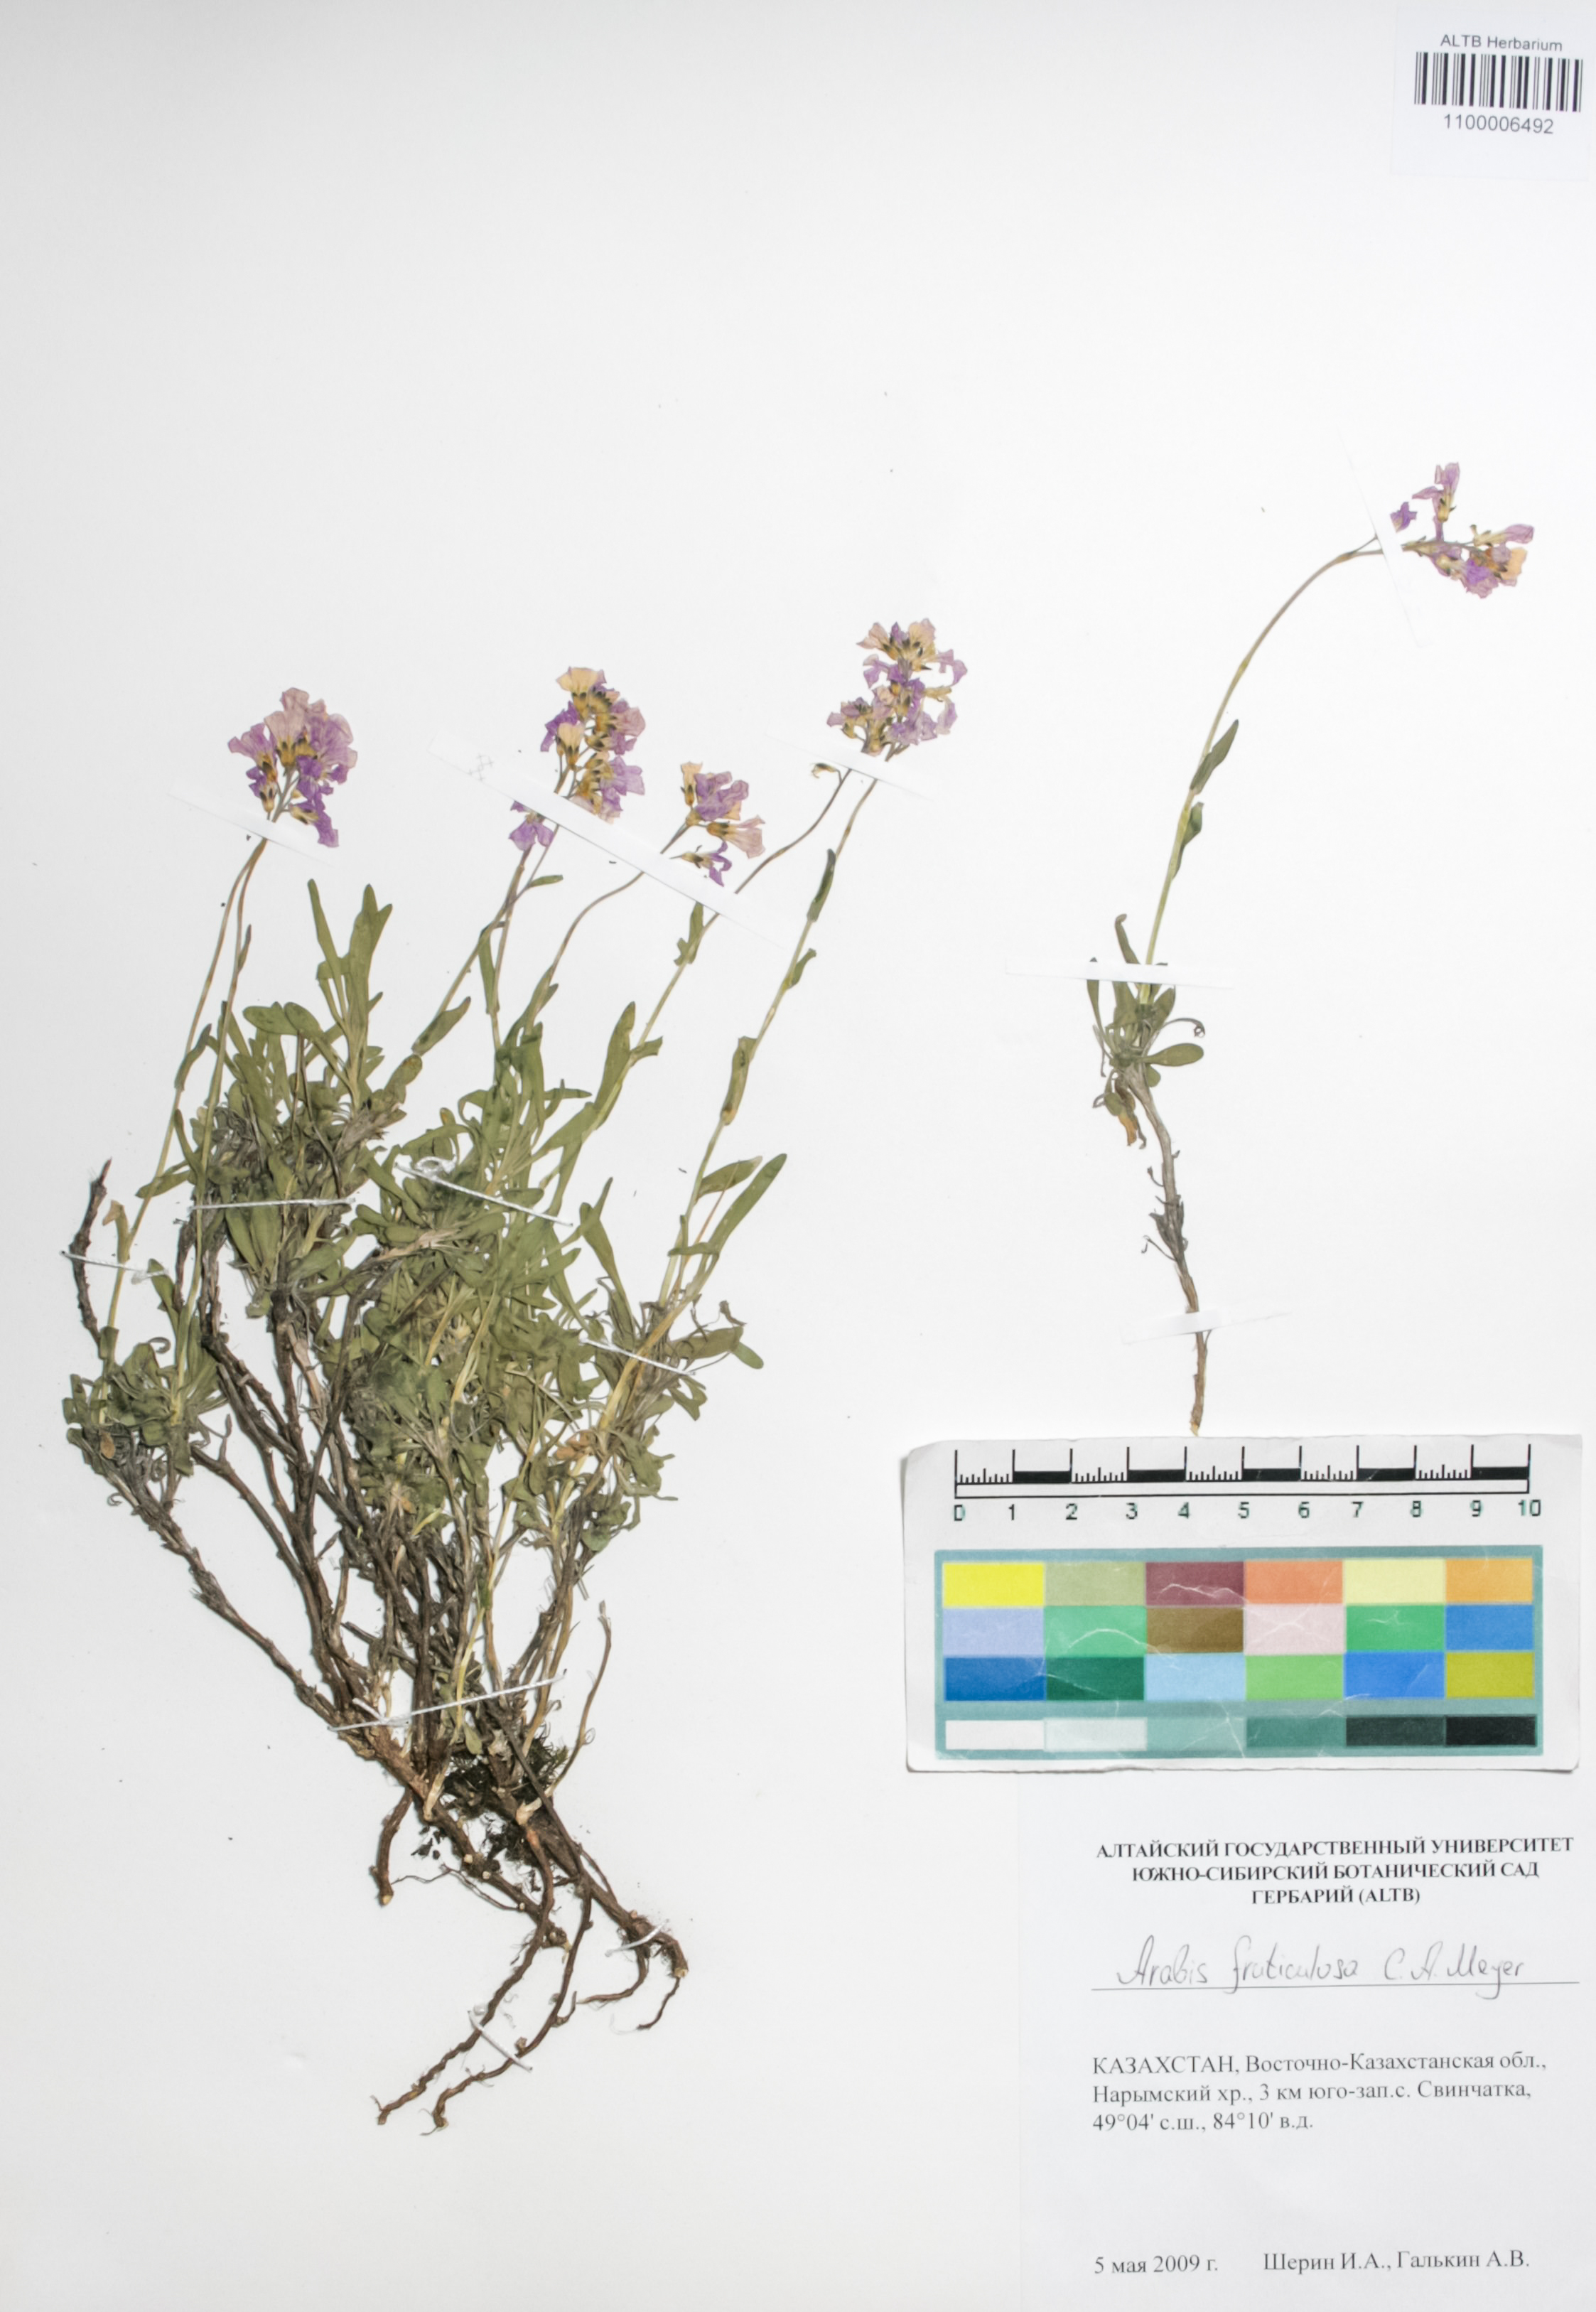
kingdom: Plantae
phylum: Tracheophyta
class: Magnoliopsida
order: Brassicales
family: Brassicaceae
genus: Dendroarabis
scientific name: Dendroarabis fruticulosa
